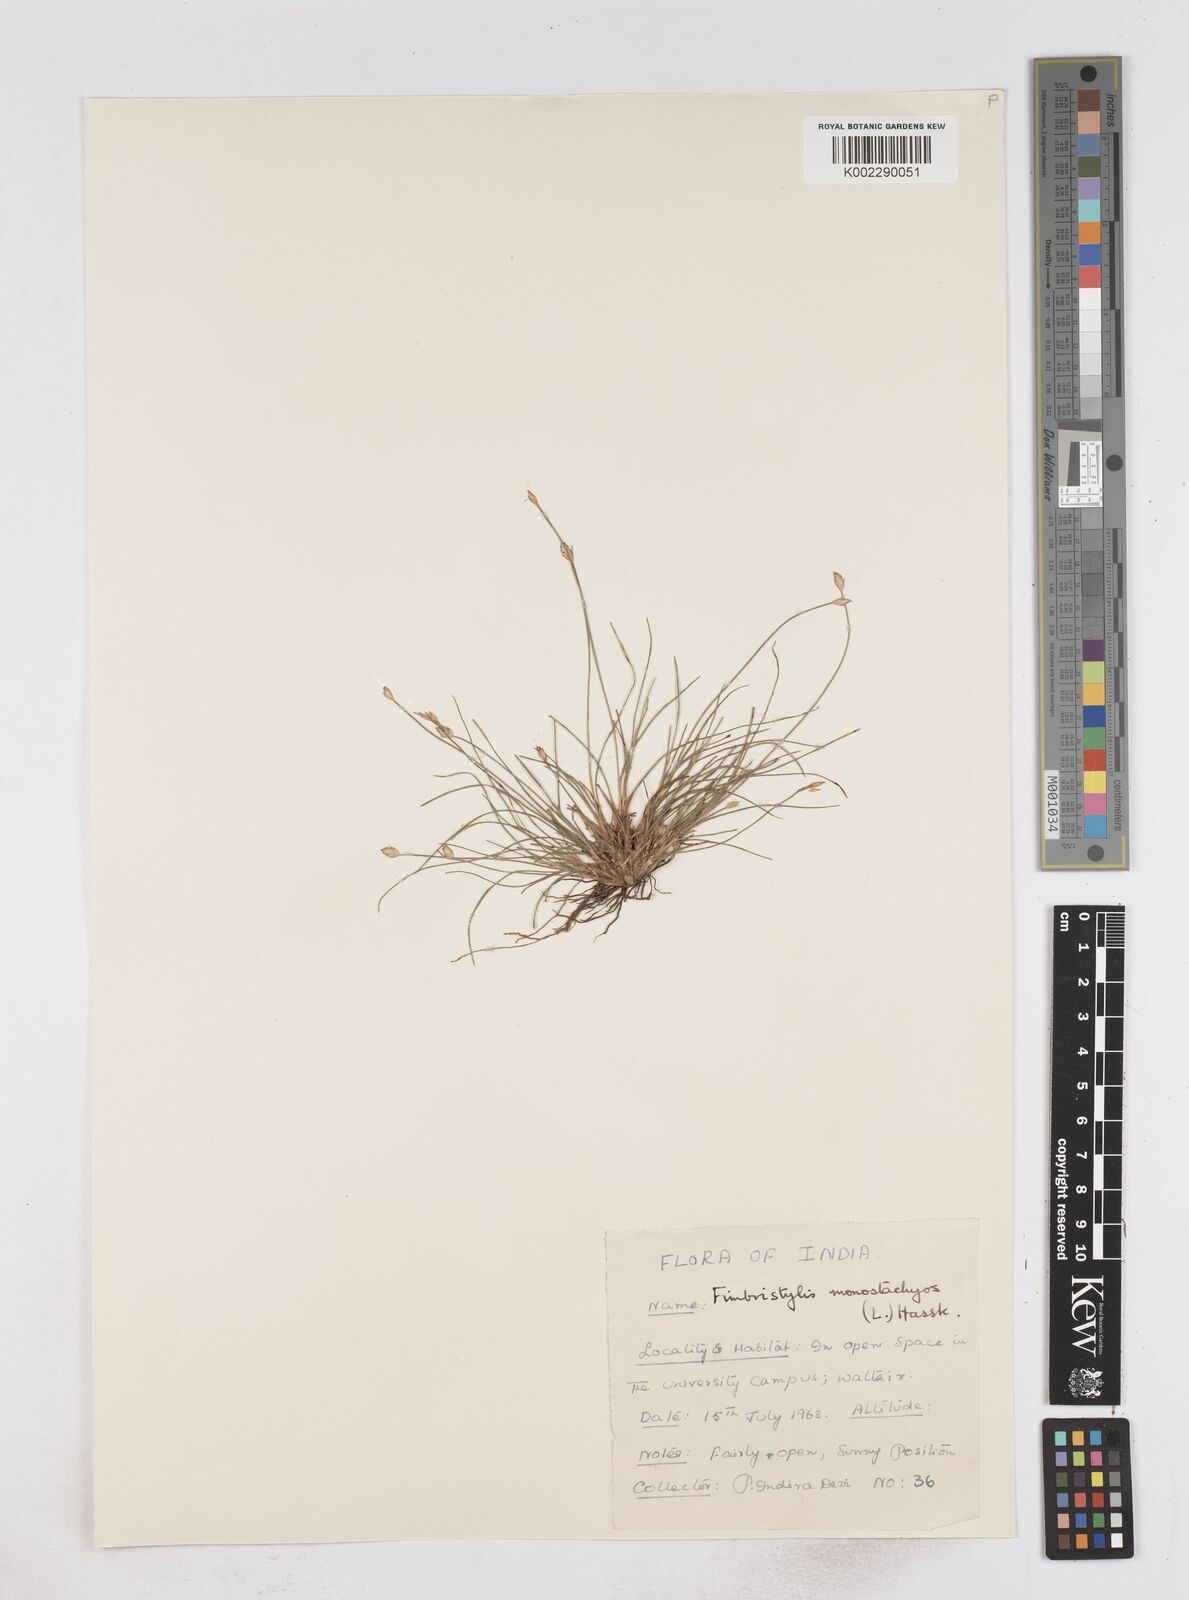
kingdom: Plantae
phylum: Tracheophyta
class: Liliopsida
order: Poales
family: Cyperaceae
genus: Abildgaardia
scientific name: Abildgaardia ovata
